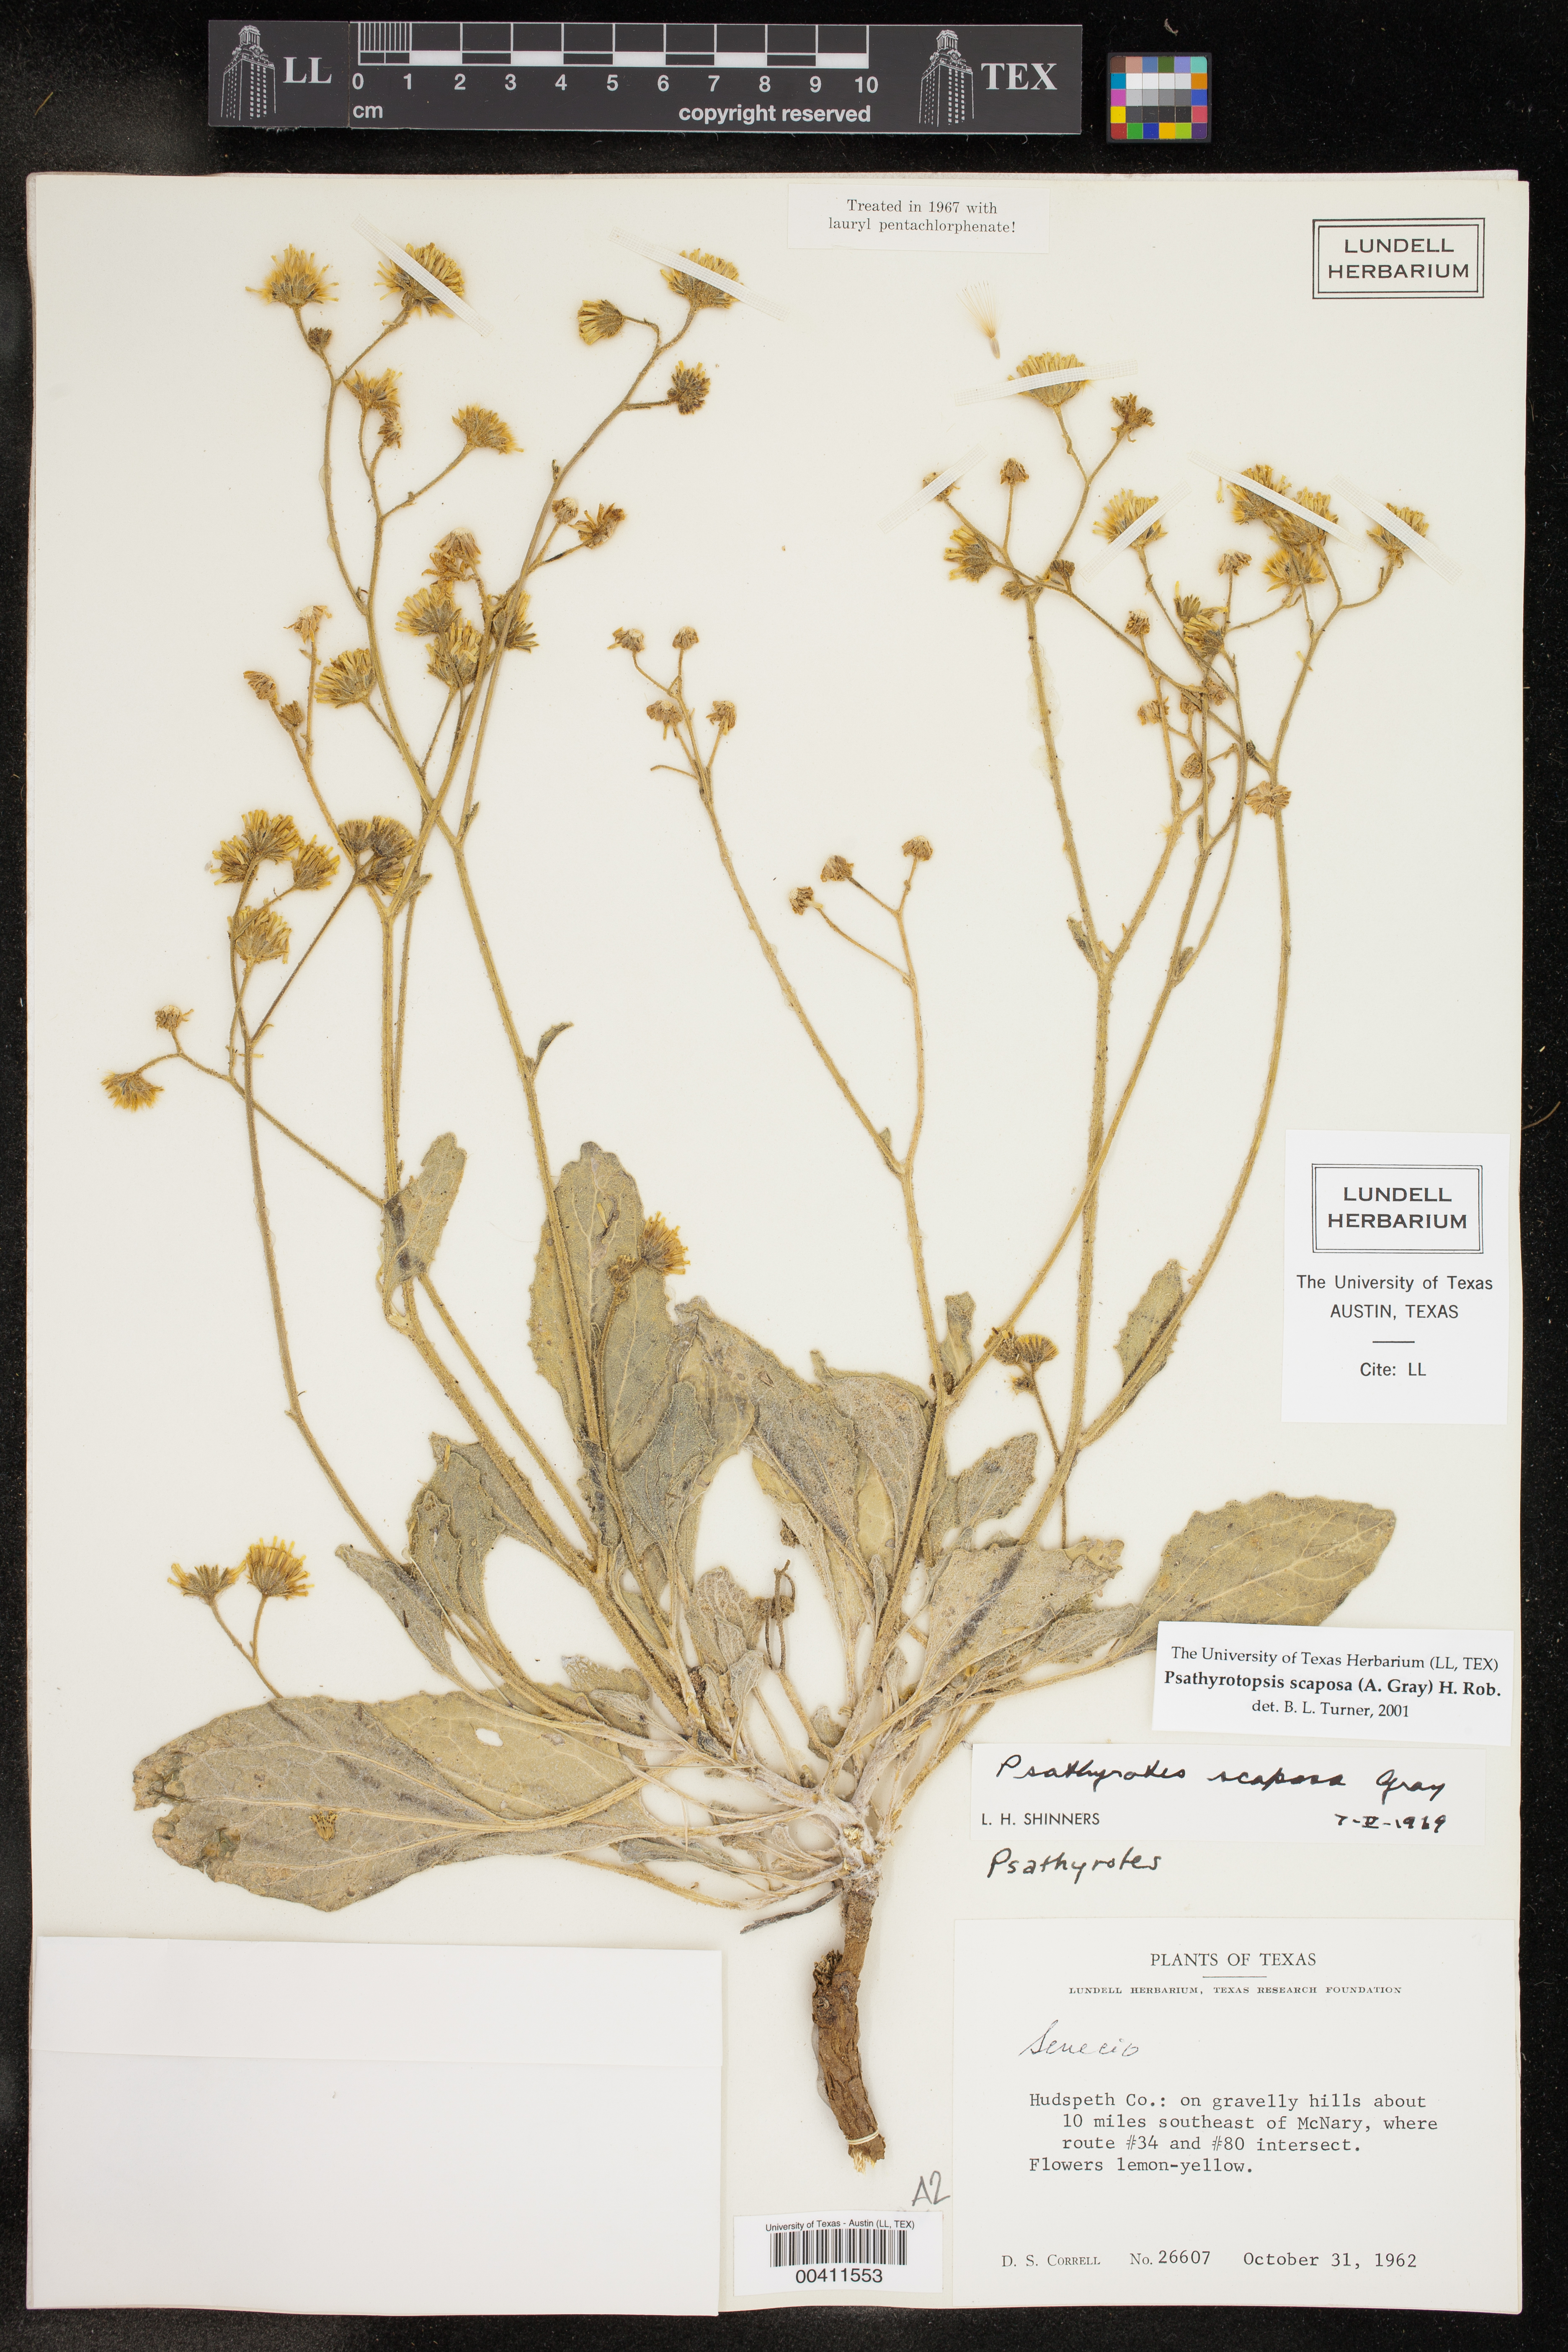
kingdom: Plantae
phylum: Tracheophyta
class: Magnoliopsida
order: Asterales
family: Asteraceae
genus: Psathyrotopsis
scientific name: Psathyrotopsis scaposa
